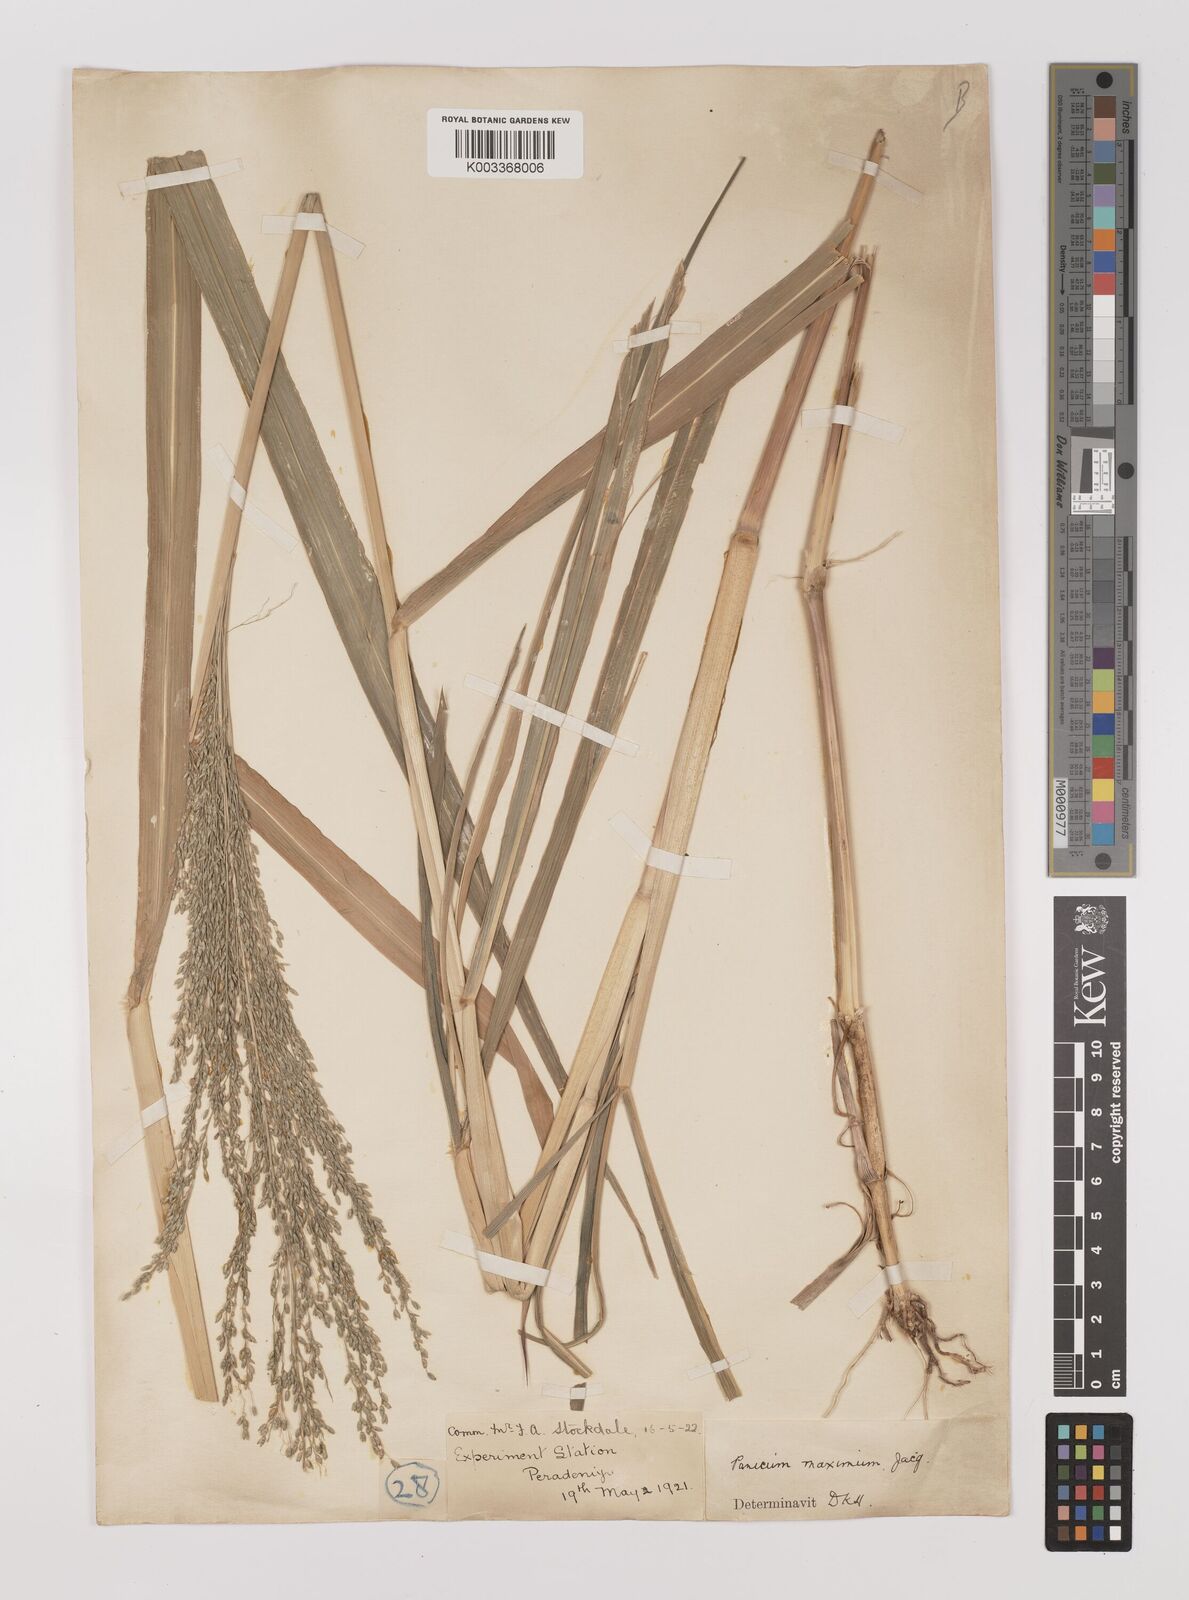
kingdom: Plantae
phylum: Tracheophyta
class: Liliopsida
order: Poales
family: Poaceae
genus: Megathyrsus
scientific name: Megathyrsus maximus
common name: Guineagrass
